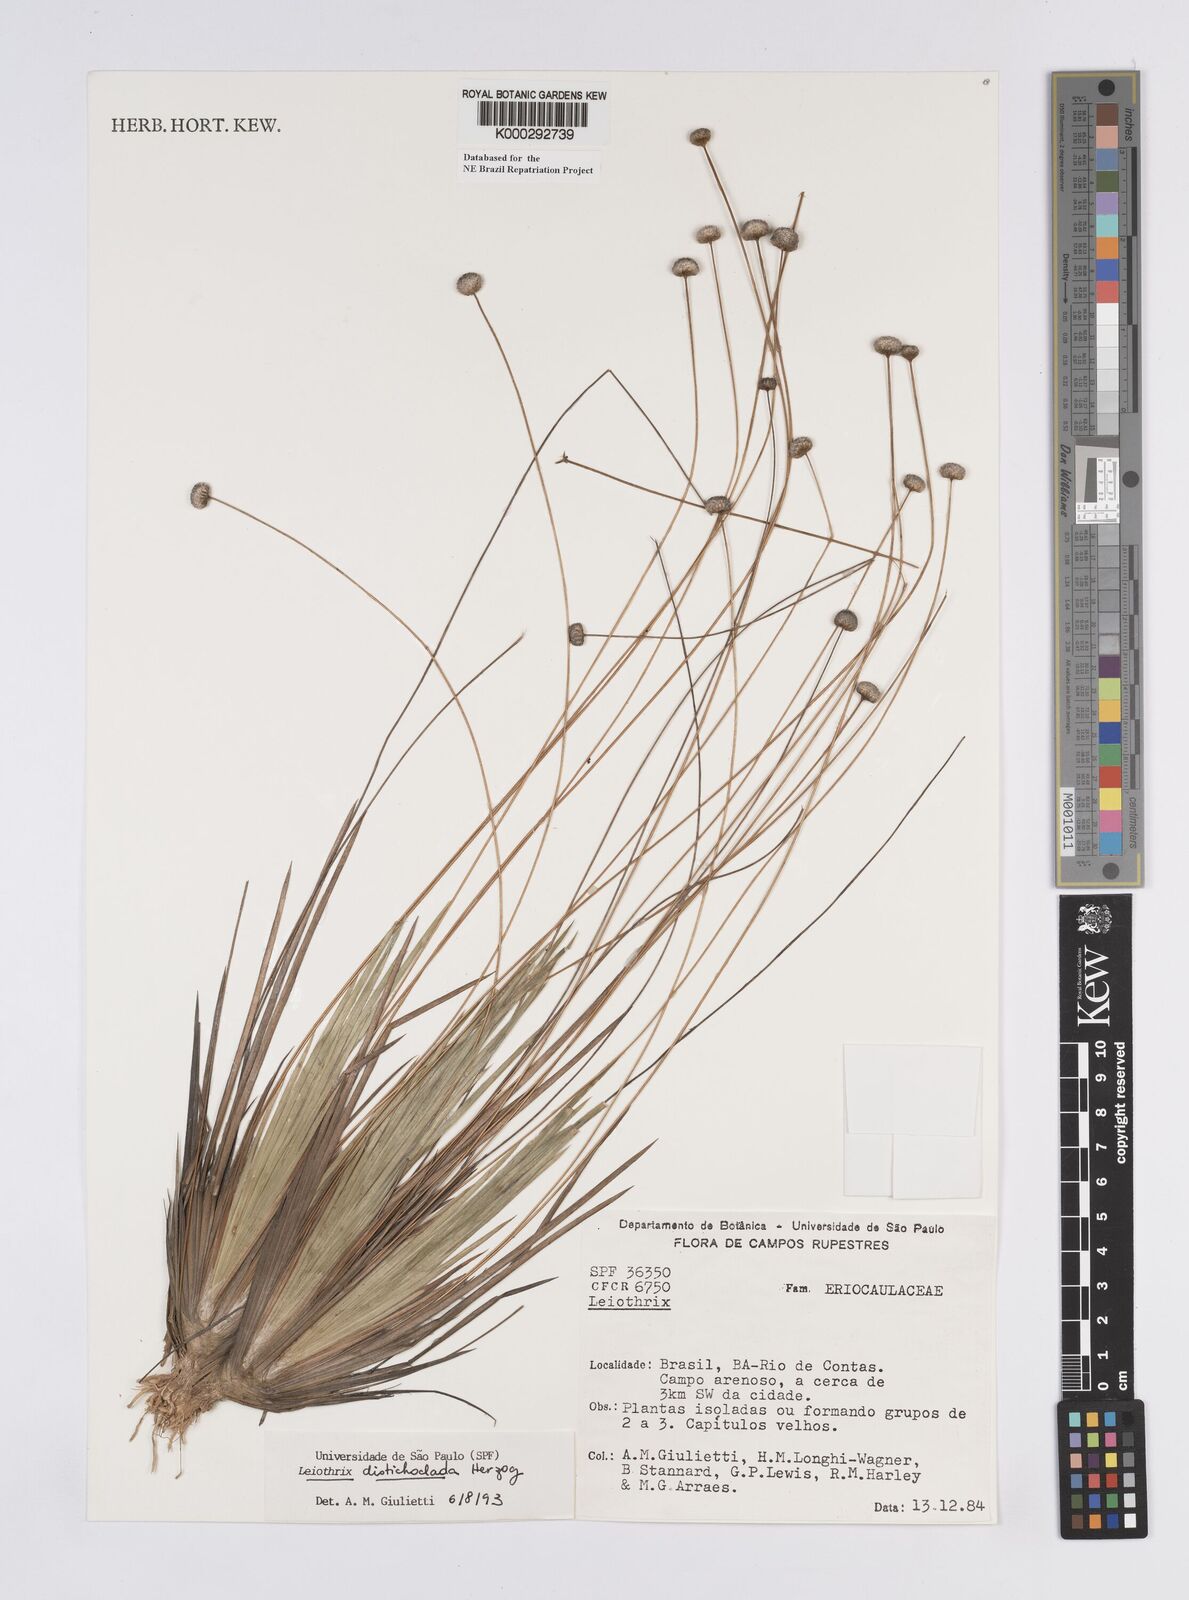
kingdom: Plantae
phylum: Tracheophyta
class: Liliopsida
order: Poales
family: Eriocaulaceae
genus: Leiothrix
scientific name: Leiothrix distichoclada
